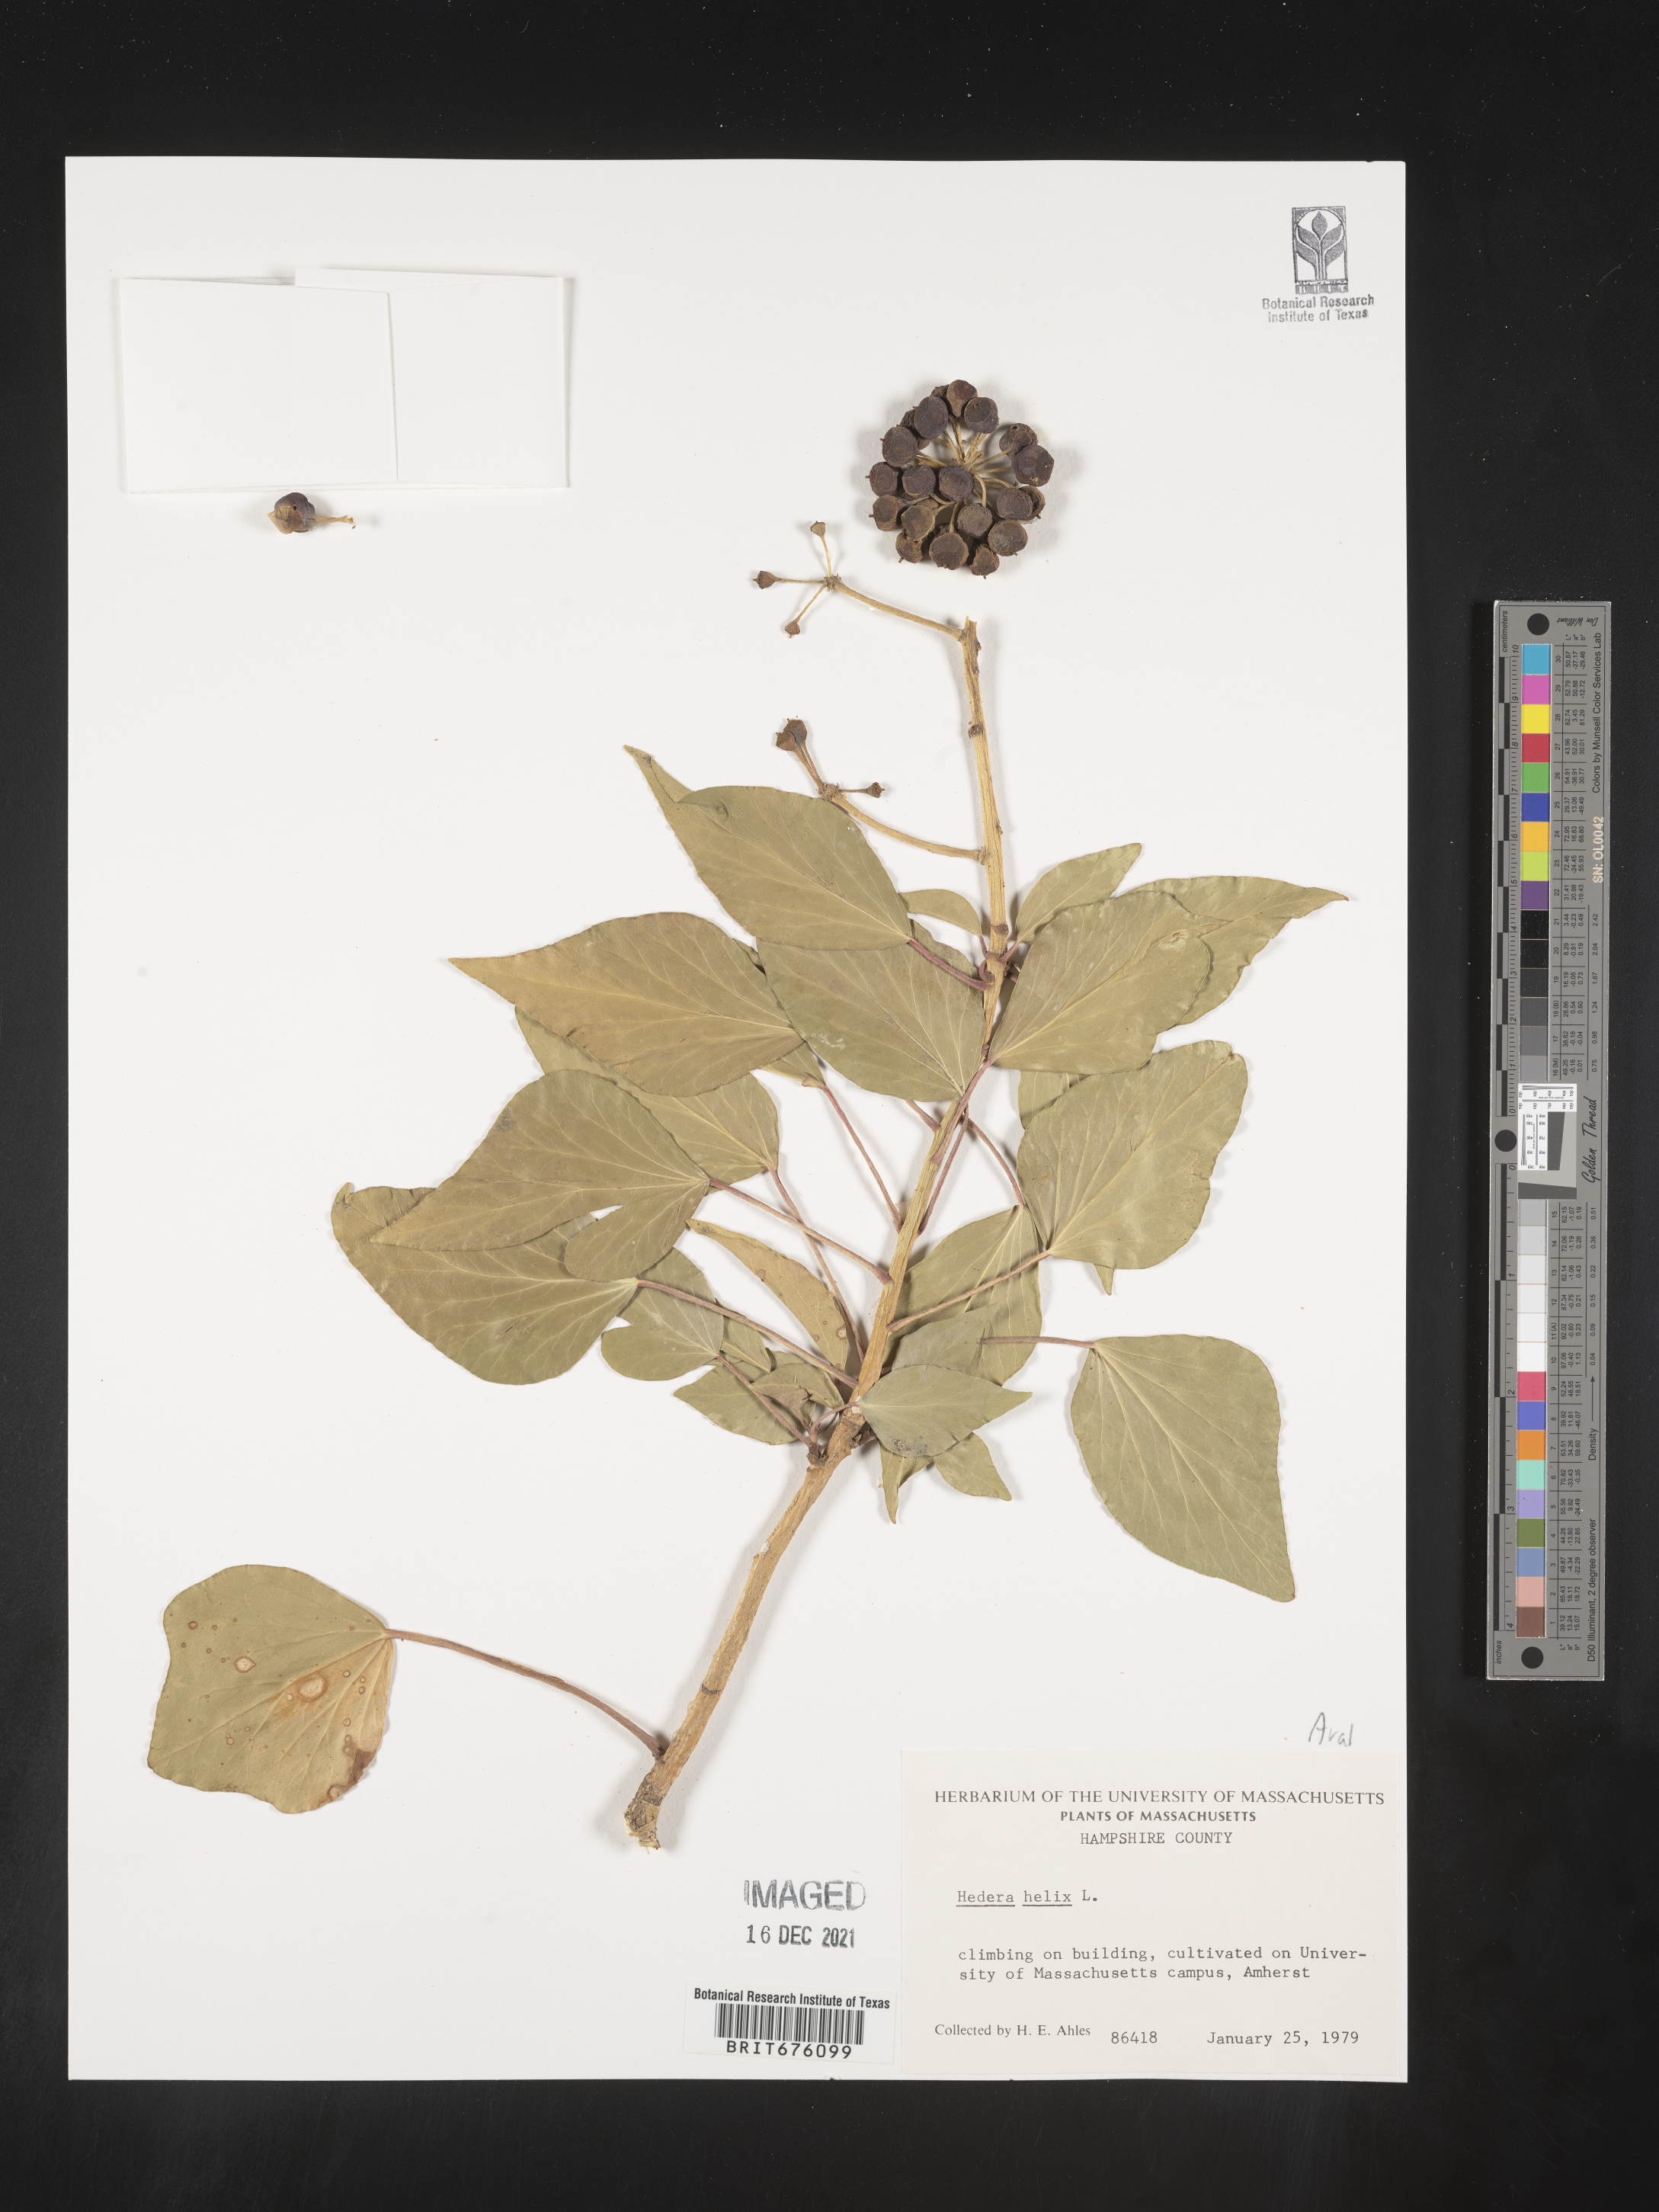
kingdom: Plantae
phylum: Tracheophyta
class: Magnoliopsida
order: Apiales
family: Araliaceae
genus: Hedera
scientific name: Hedera
